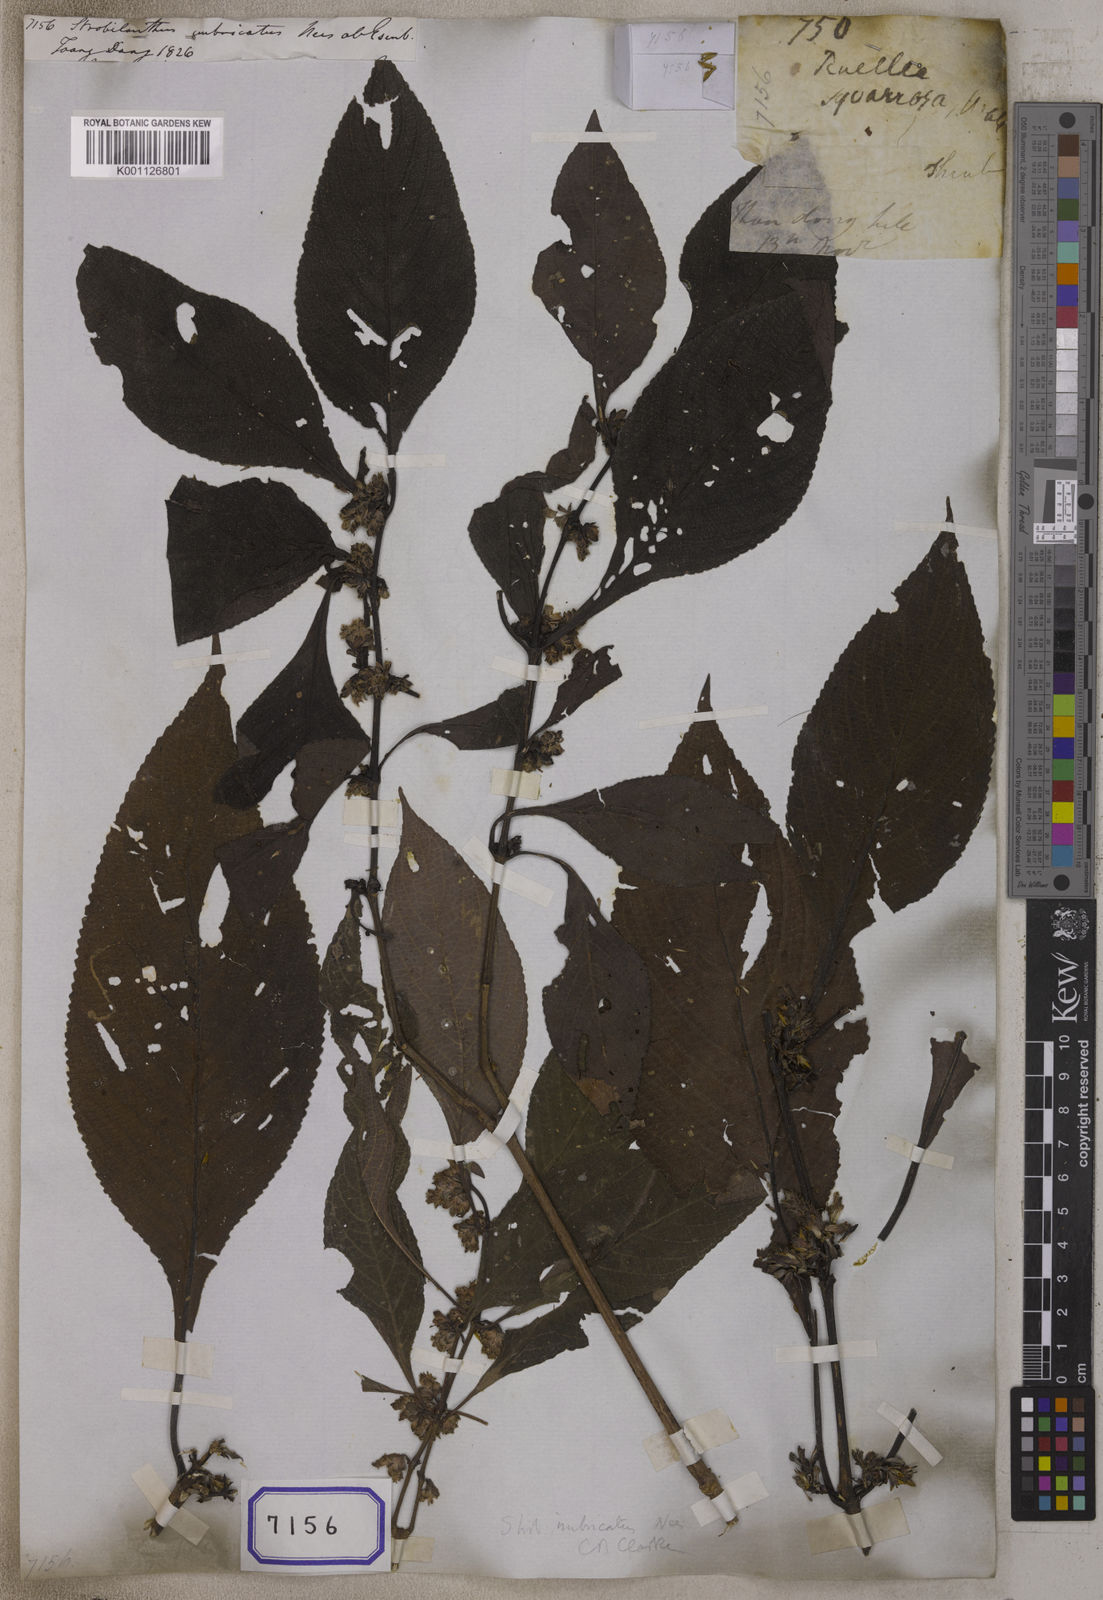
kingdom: Plantae
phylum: Tracheophyta
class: Magnoliopsida
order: Lamiales
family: Acanthaceae
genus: Strobilanthes
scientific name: Strobilanthes imbricata
